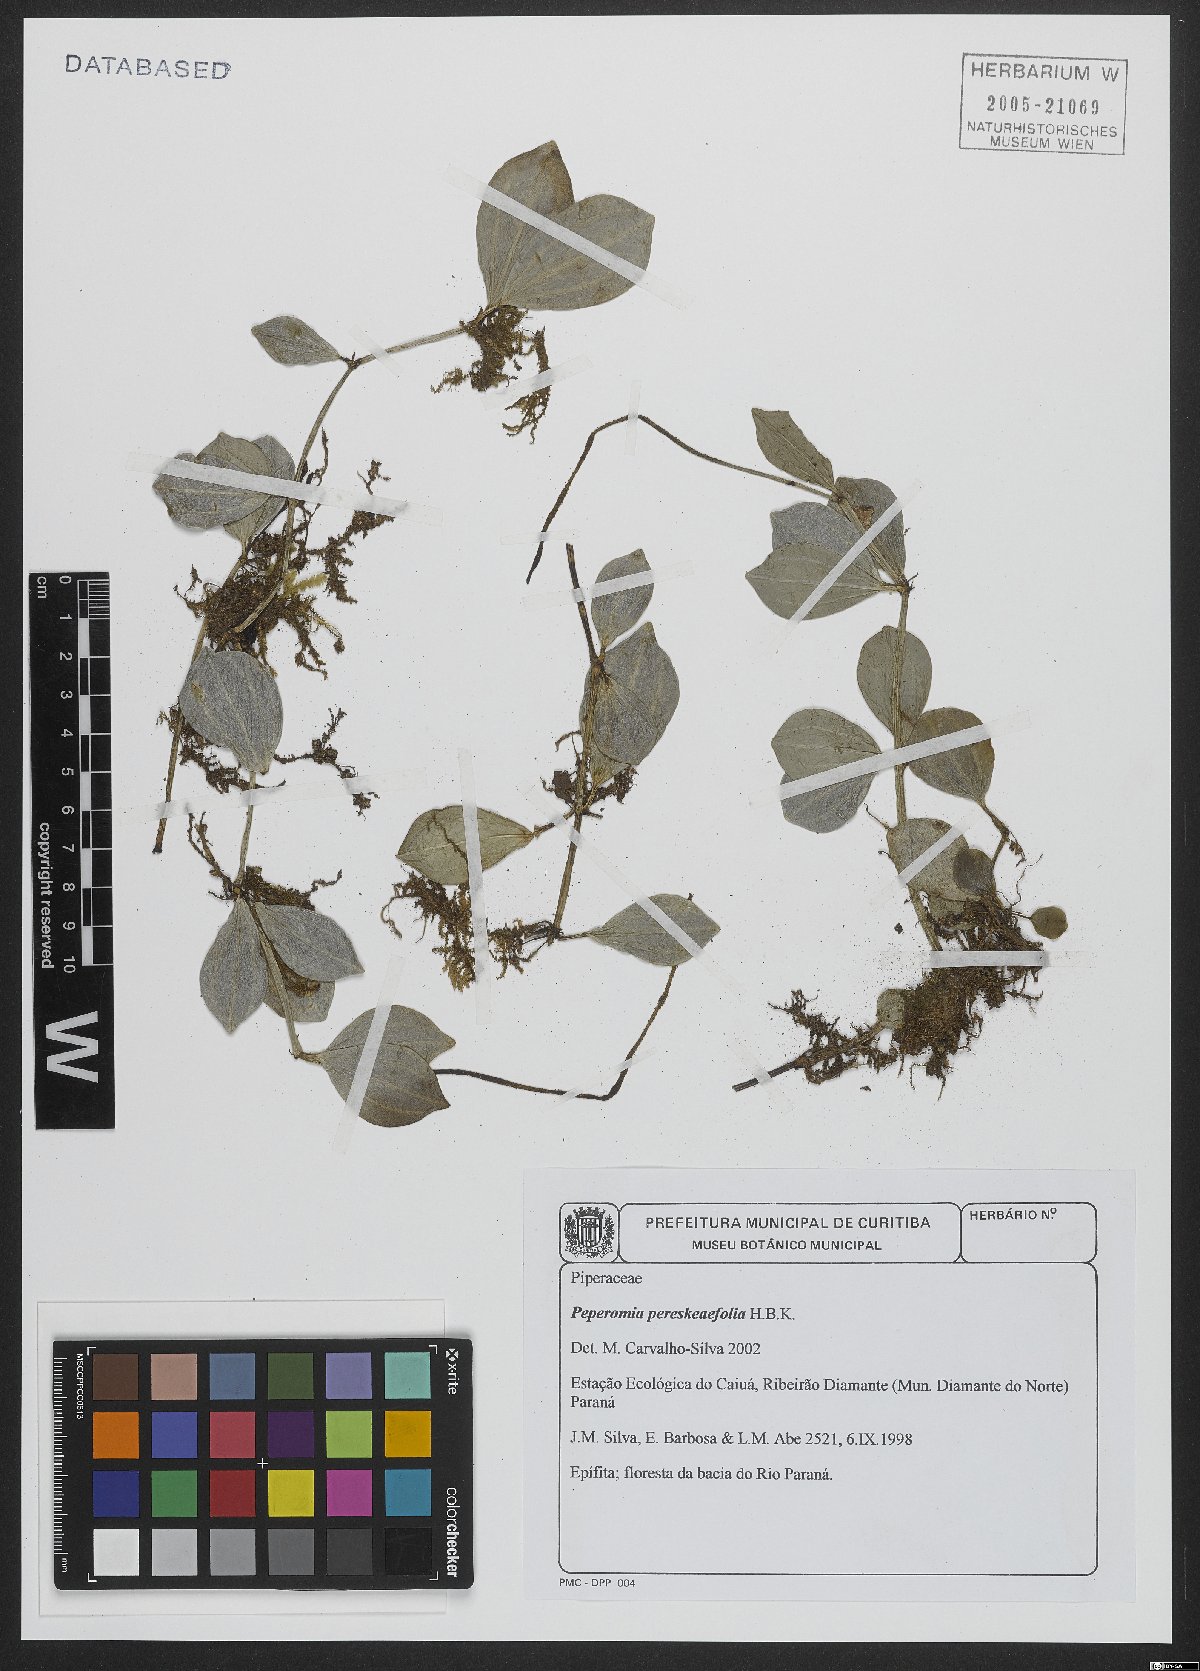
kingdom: Plantae
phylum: Tracheophyta
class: Magnoliopsida
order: Piperales
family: Piperaceae
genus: Peperomia
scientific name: Peperomia pereskiifolia
